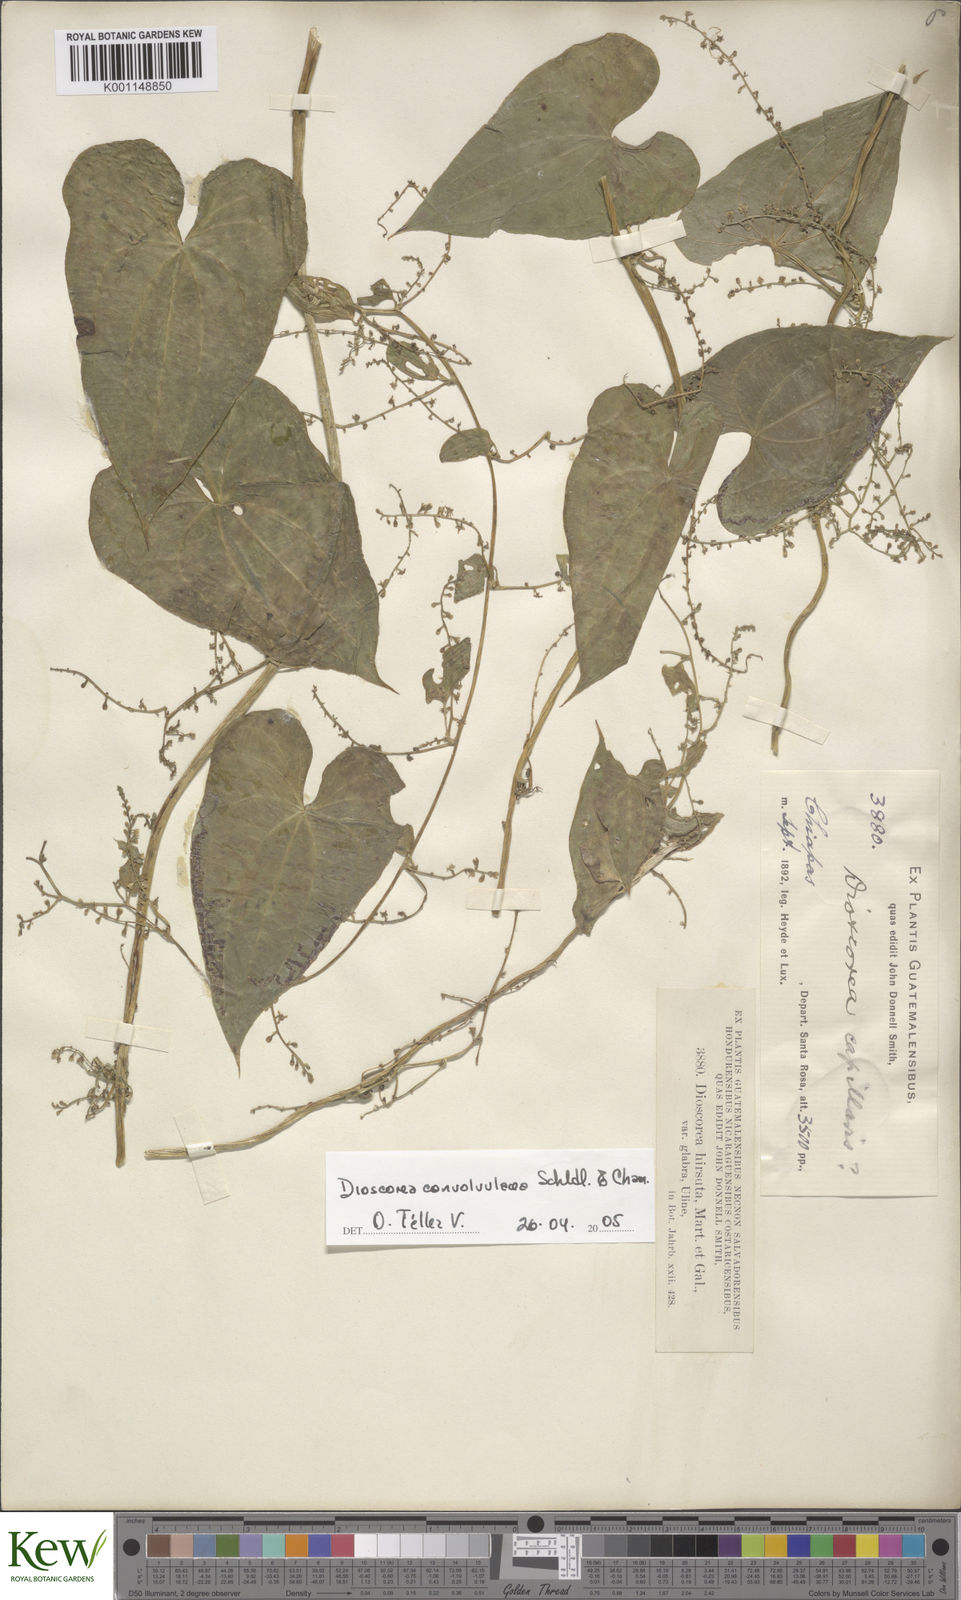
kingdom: Plantae
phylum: Tracheophyta
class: Liliopsida
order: Dioscoreales
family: Dioscoreaceae
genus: Dioscorea
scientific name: Dioscorea convolvulacea
